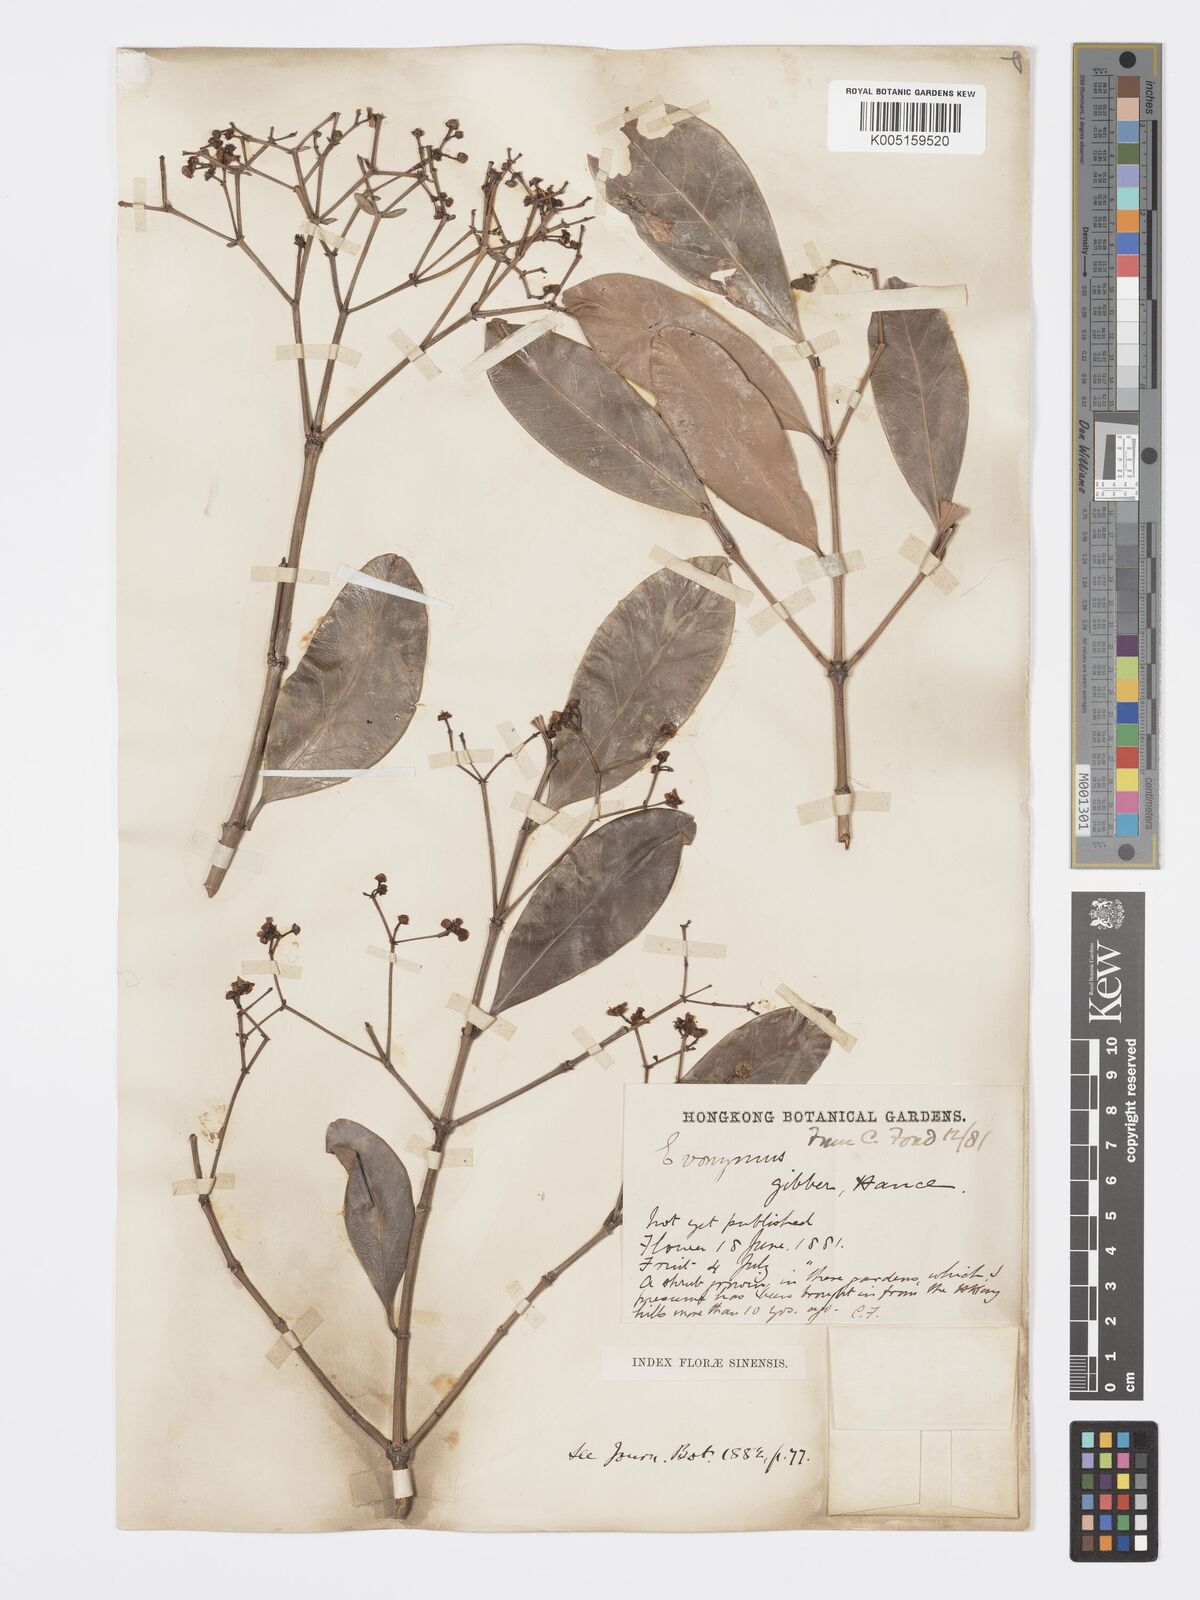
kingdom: Plantae
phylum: Tracheophyta
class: Magnoliopsida
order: Celastrales
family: Celastraceae
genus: Euonymus
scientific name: Euonymus cochinchinensis
